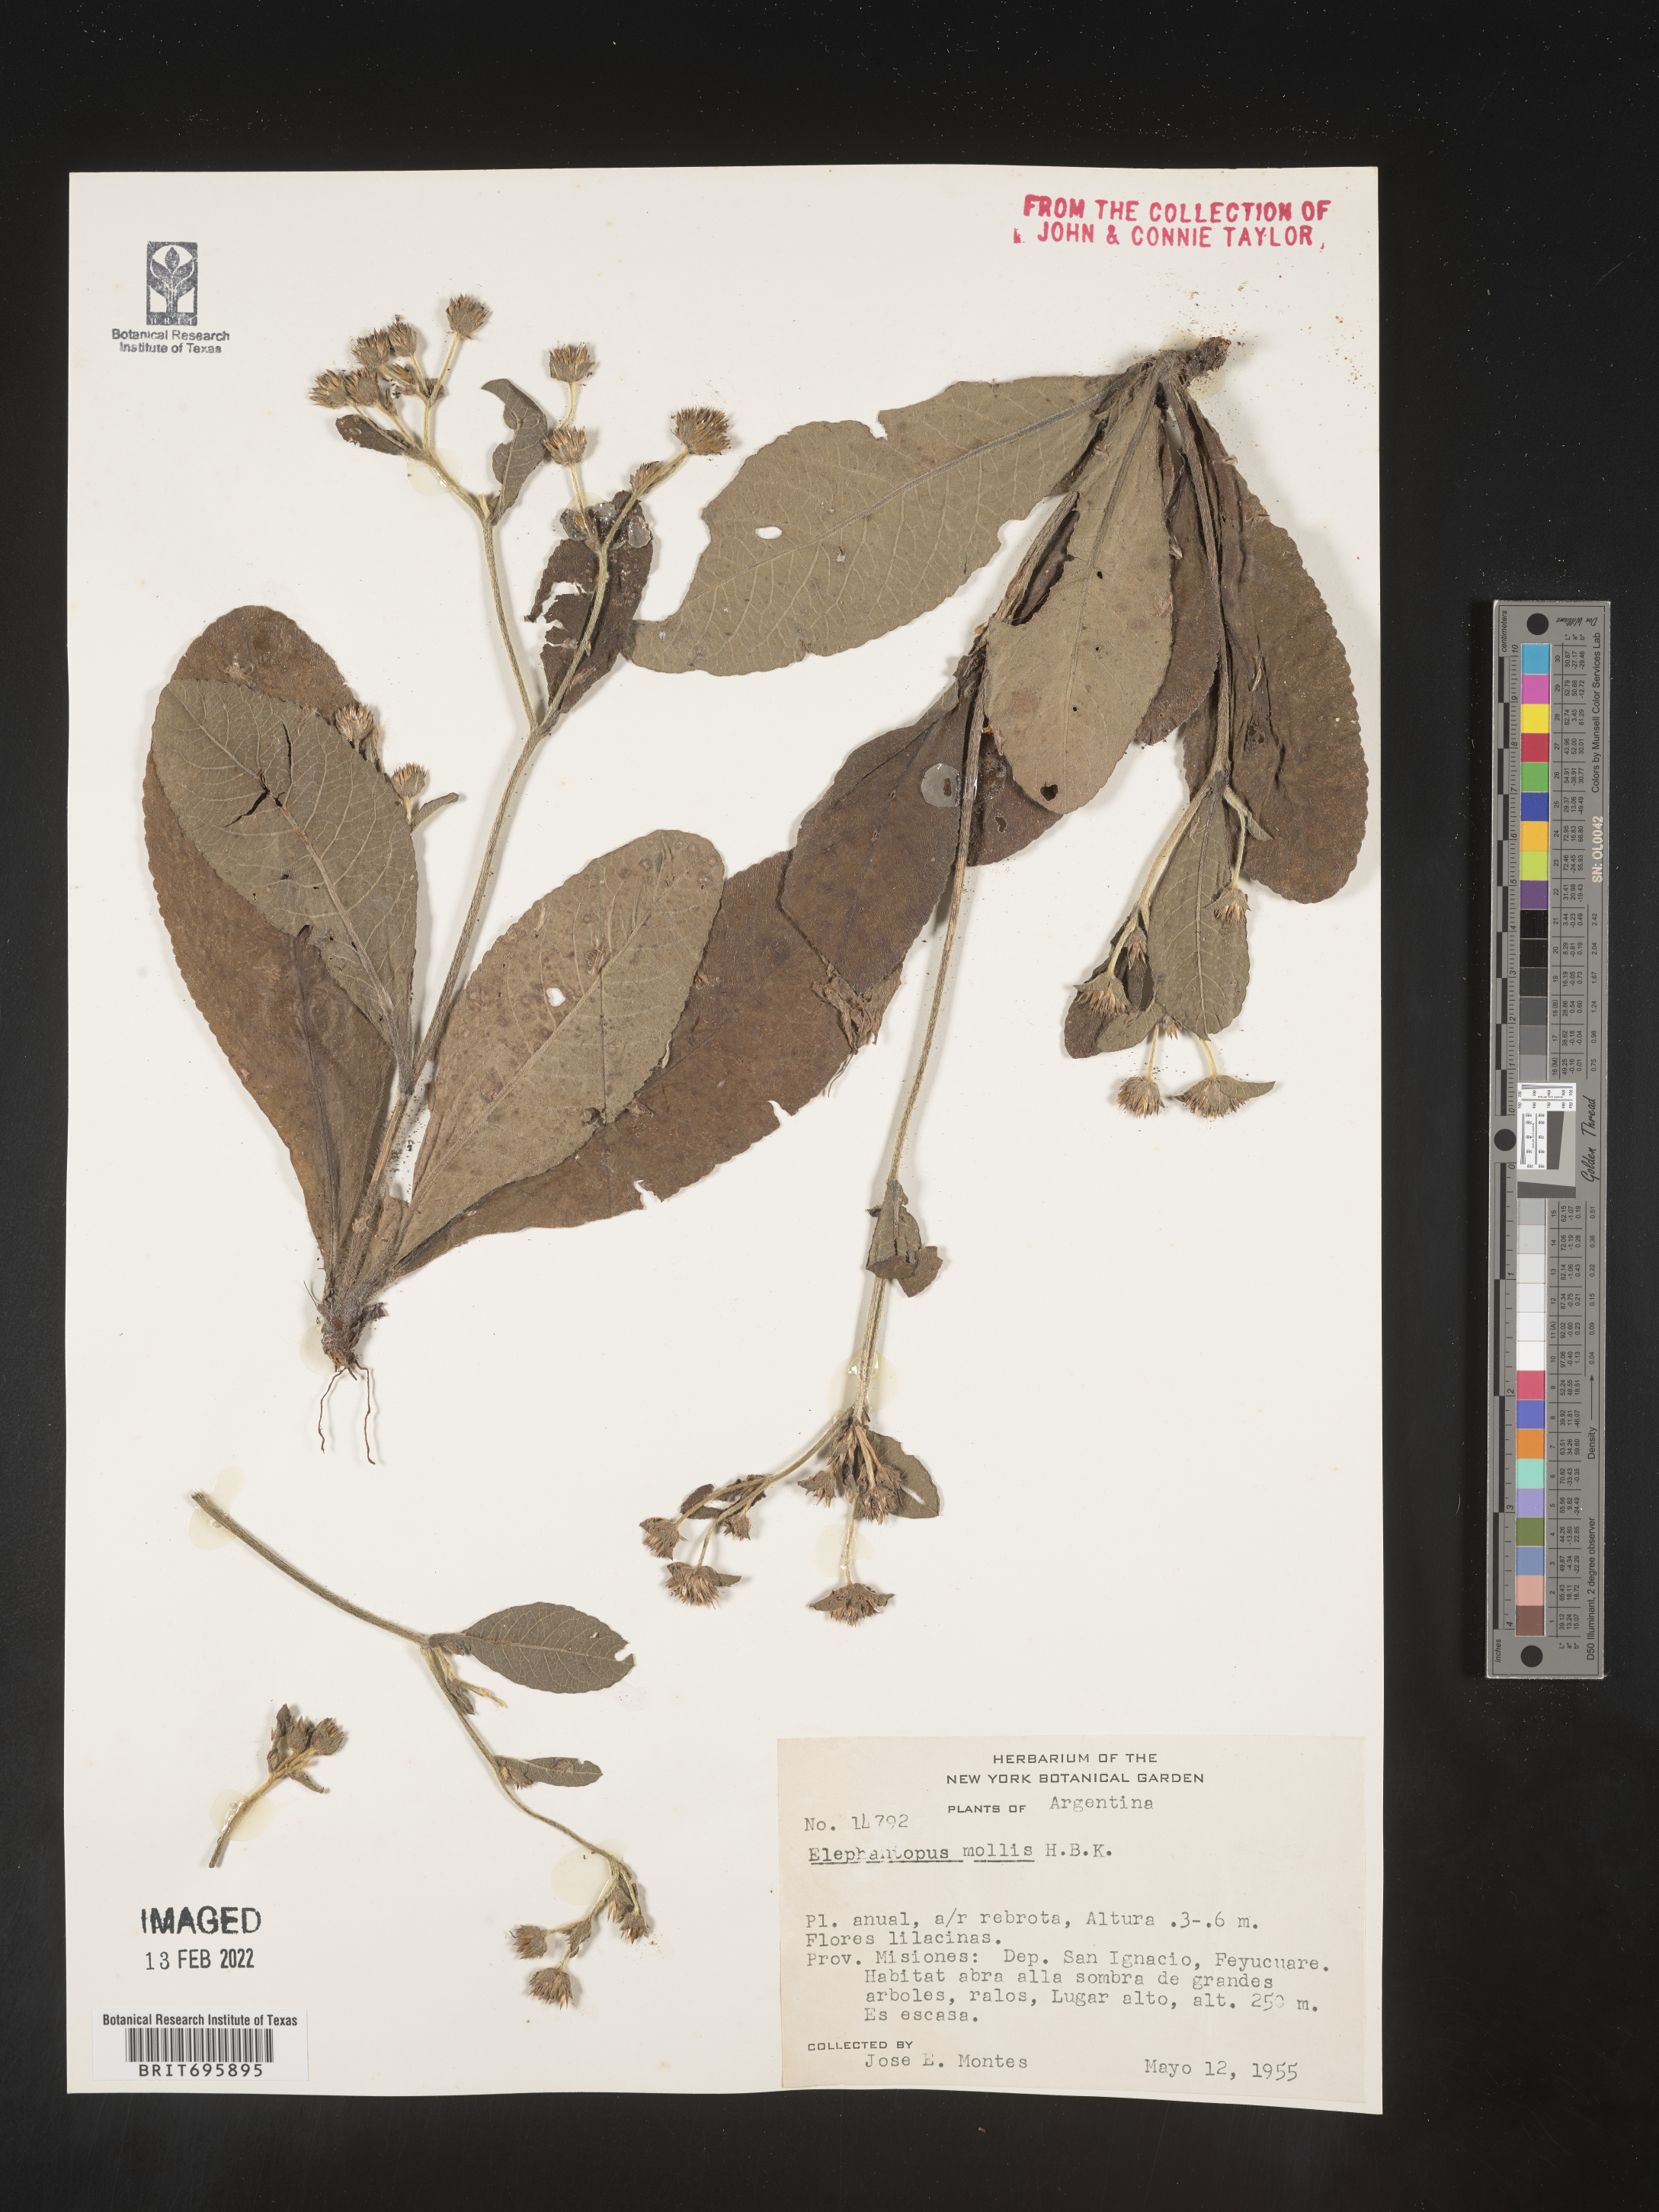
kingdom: Plantae
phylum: Tracheophyta
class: Magnoliopsida
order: Asterales
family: Asteraceae
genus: Elephantopus
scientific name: Elephantopus
